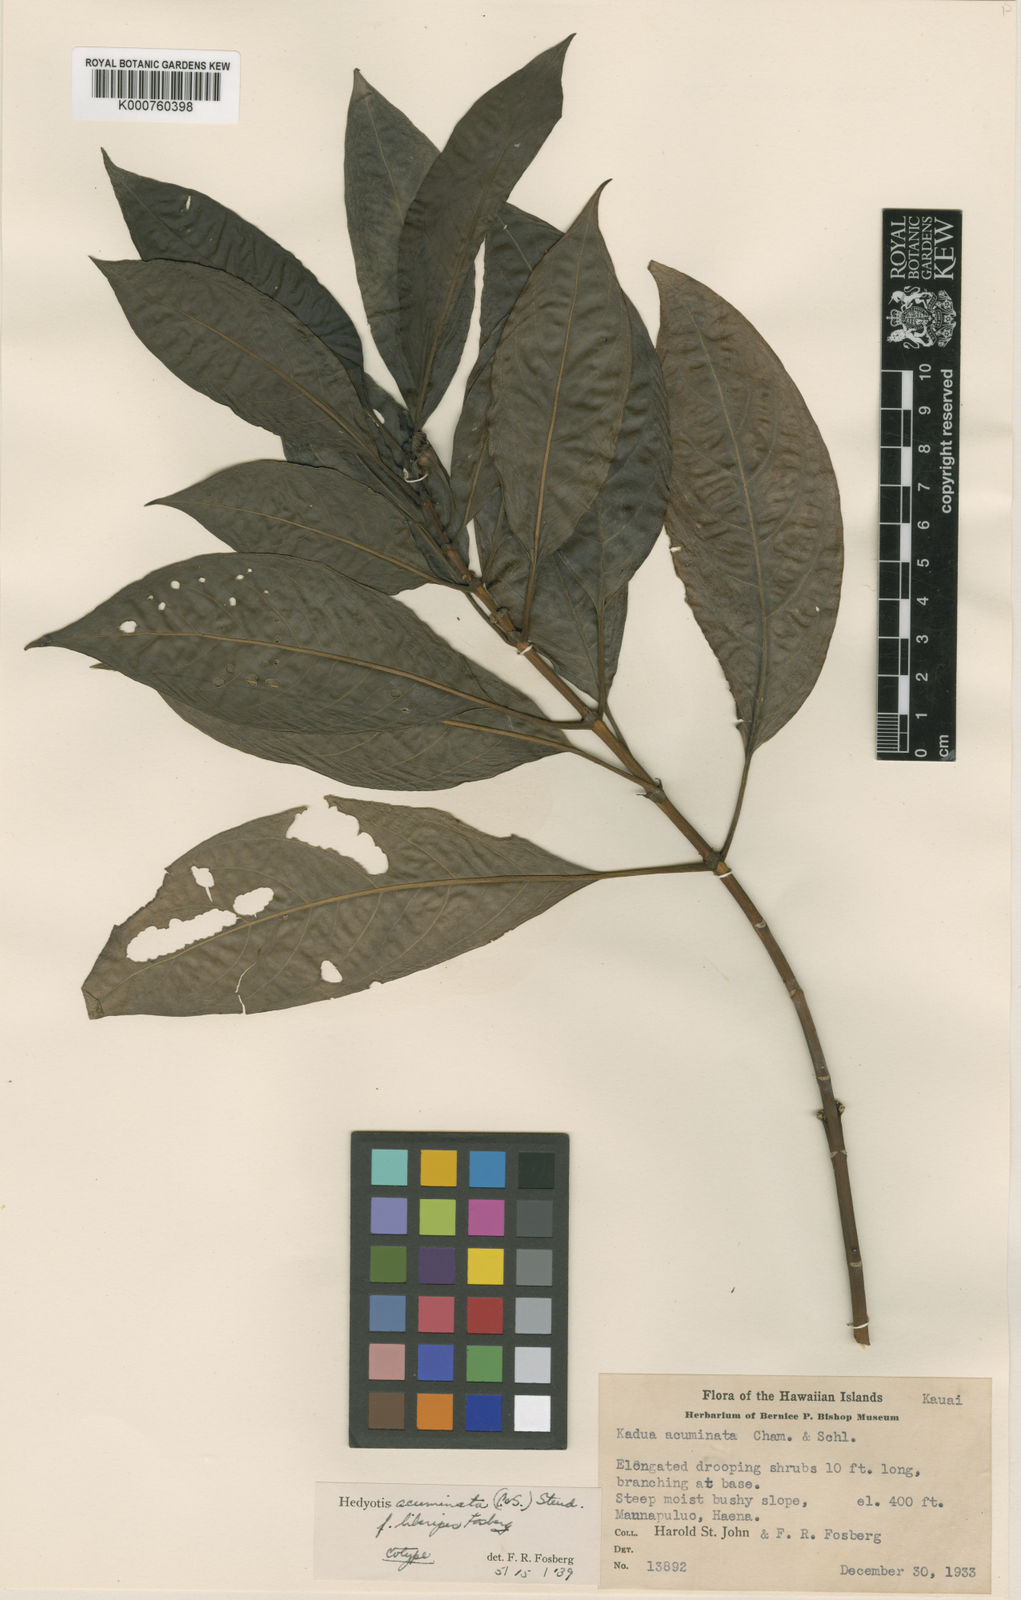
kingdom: Plantae
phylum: Tracheophyta
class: Magnoliopsida
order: Gentianales
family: Rubiaceae
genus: Kadua
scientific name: Kadua acuminata
